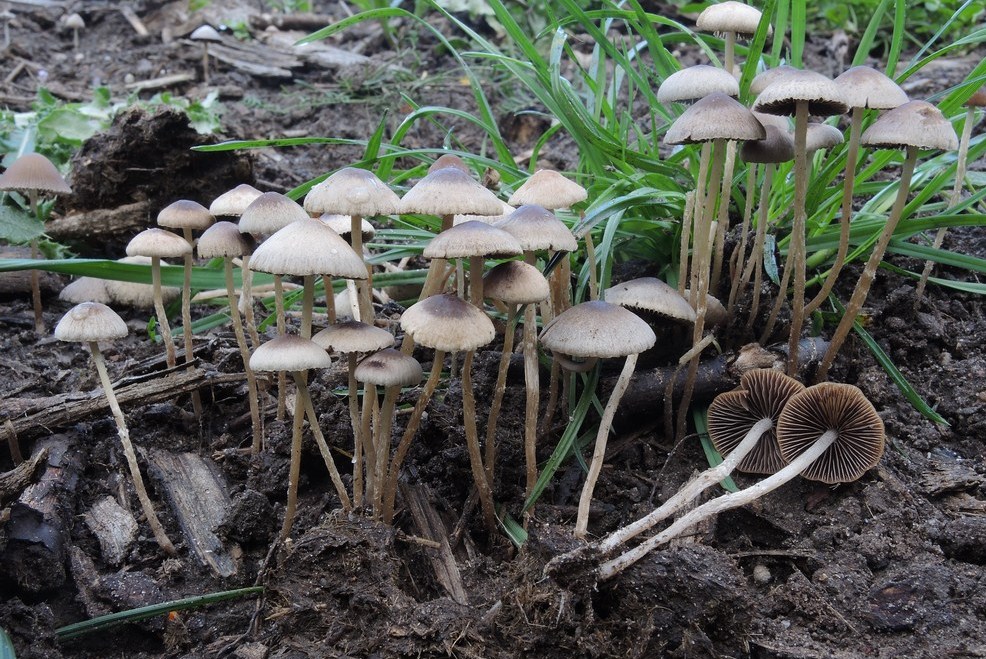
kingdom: Fungi
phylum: Basidiomycota
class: Agaricomycetes
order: Agaricales
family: Psathyrellaceae
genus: Psathyrella
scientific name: Psathyrella microrhiza
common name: rod-mørkhat
